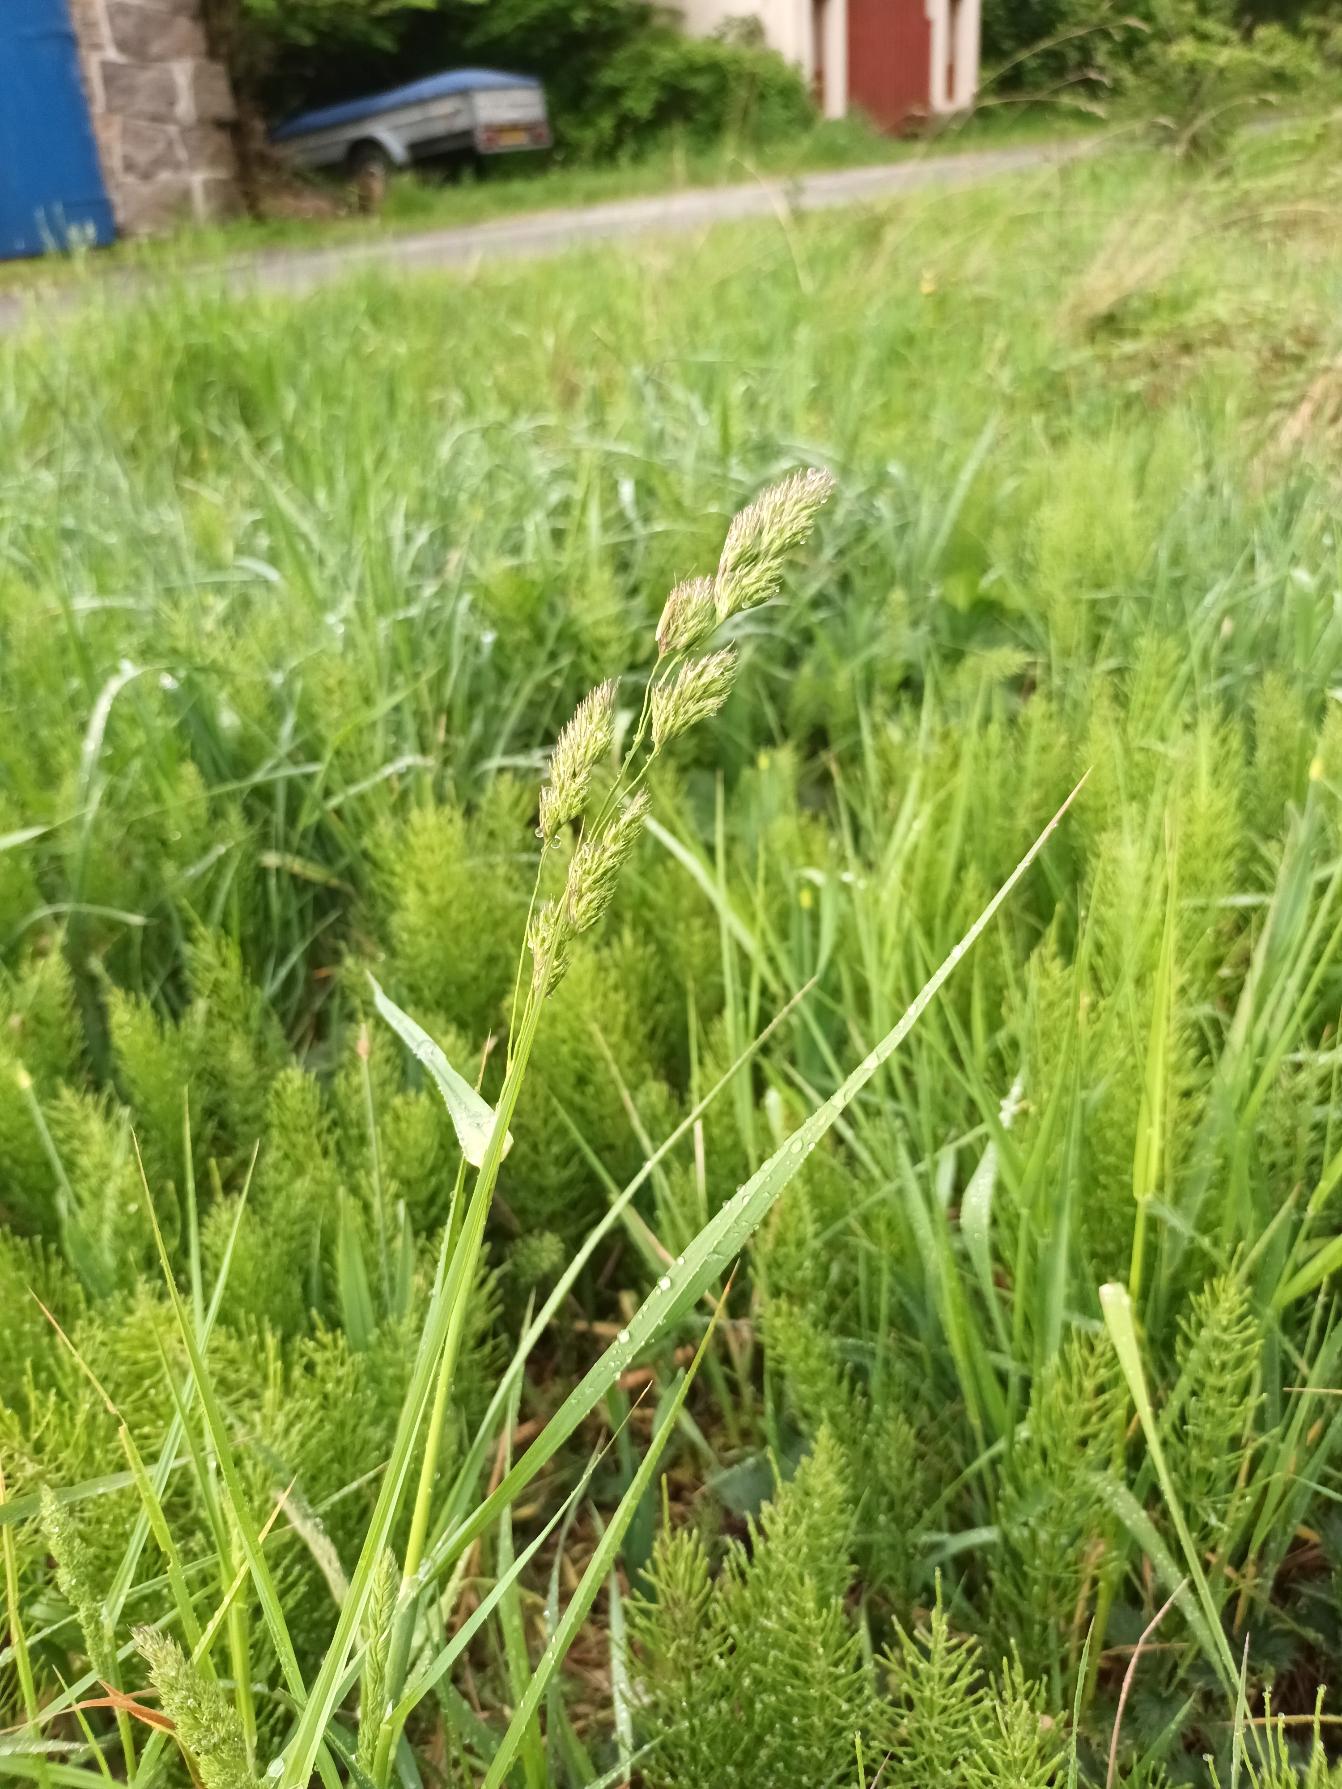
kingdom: Plantae
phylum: Tracheophyta
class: Liliopsida
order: Poales
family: Poaceae
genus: Dactylis
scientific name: Dactylis glomerata
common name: Almindelig hundegræs
